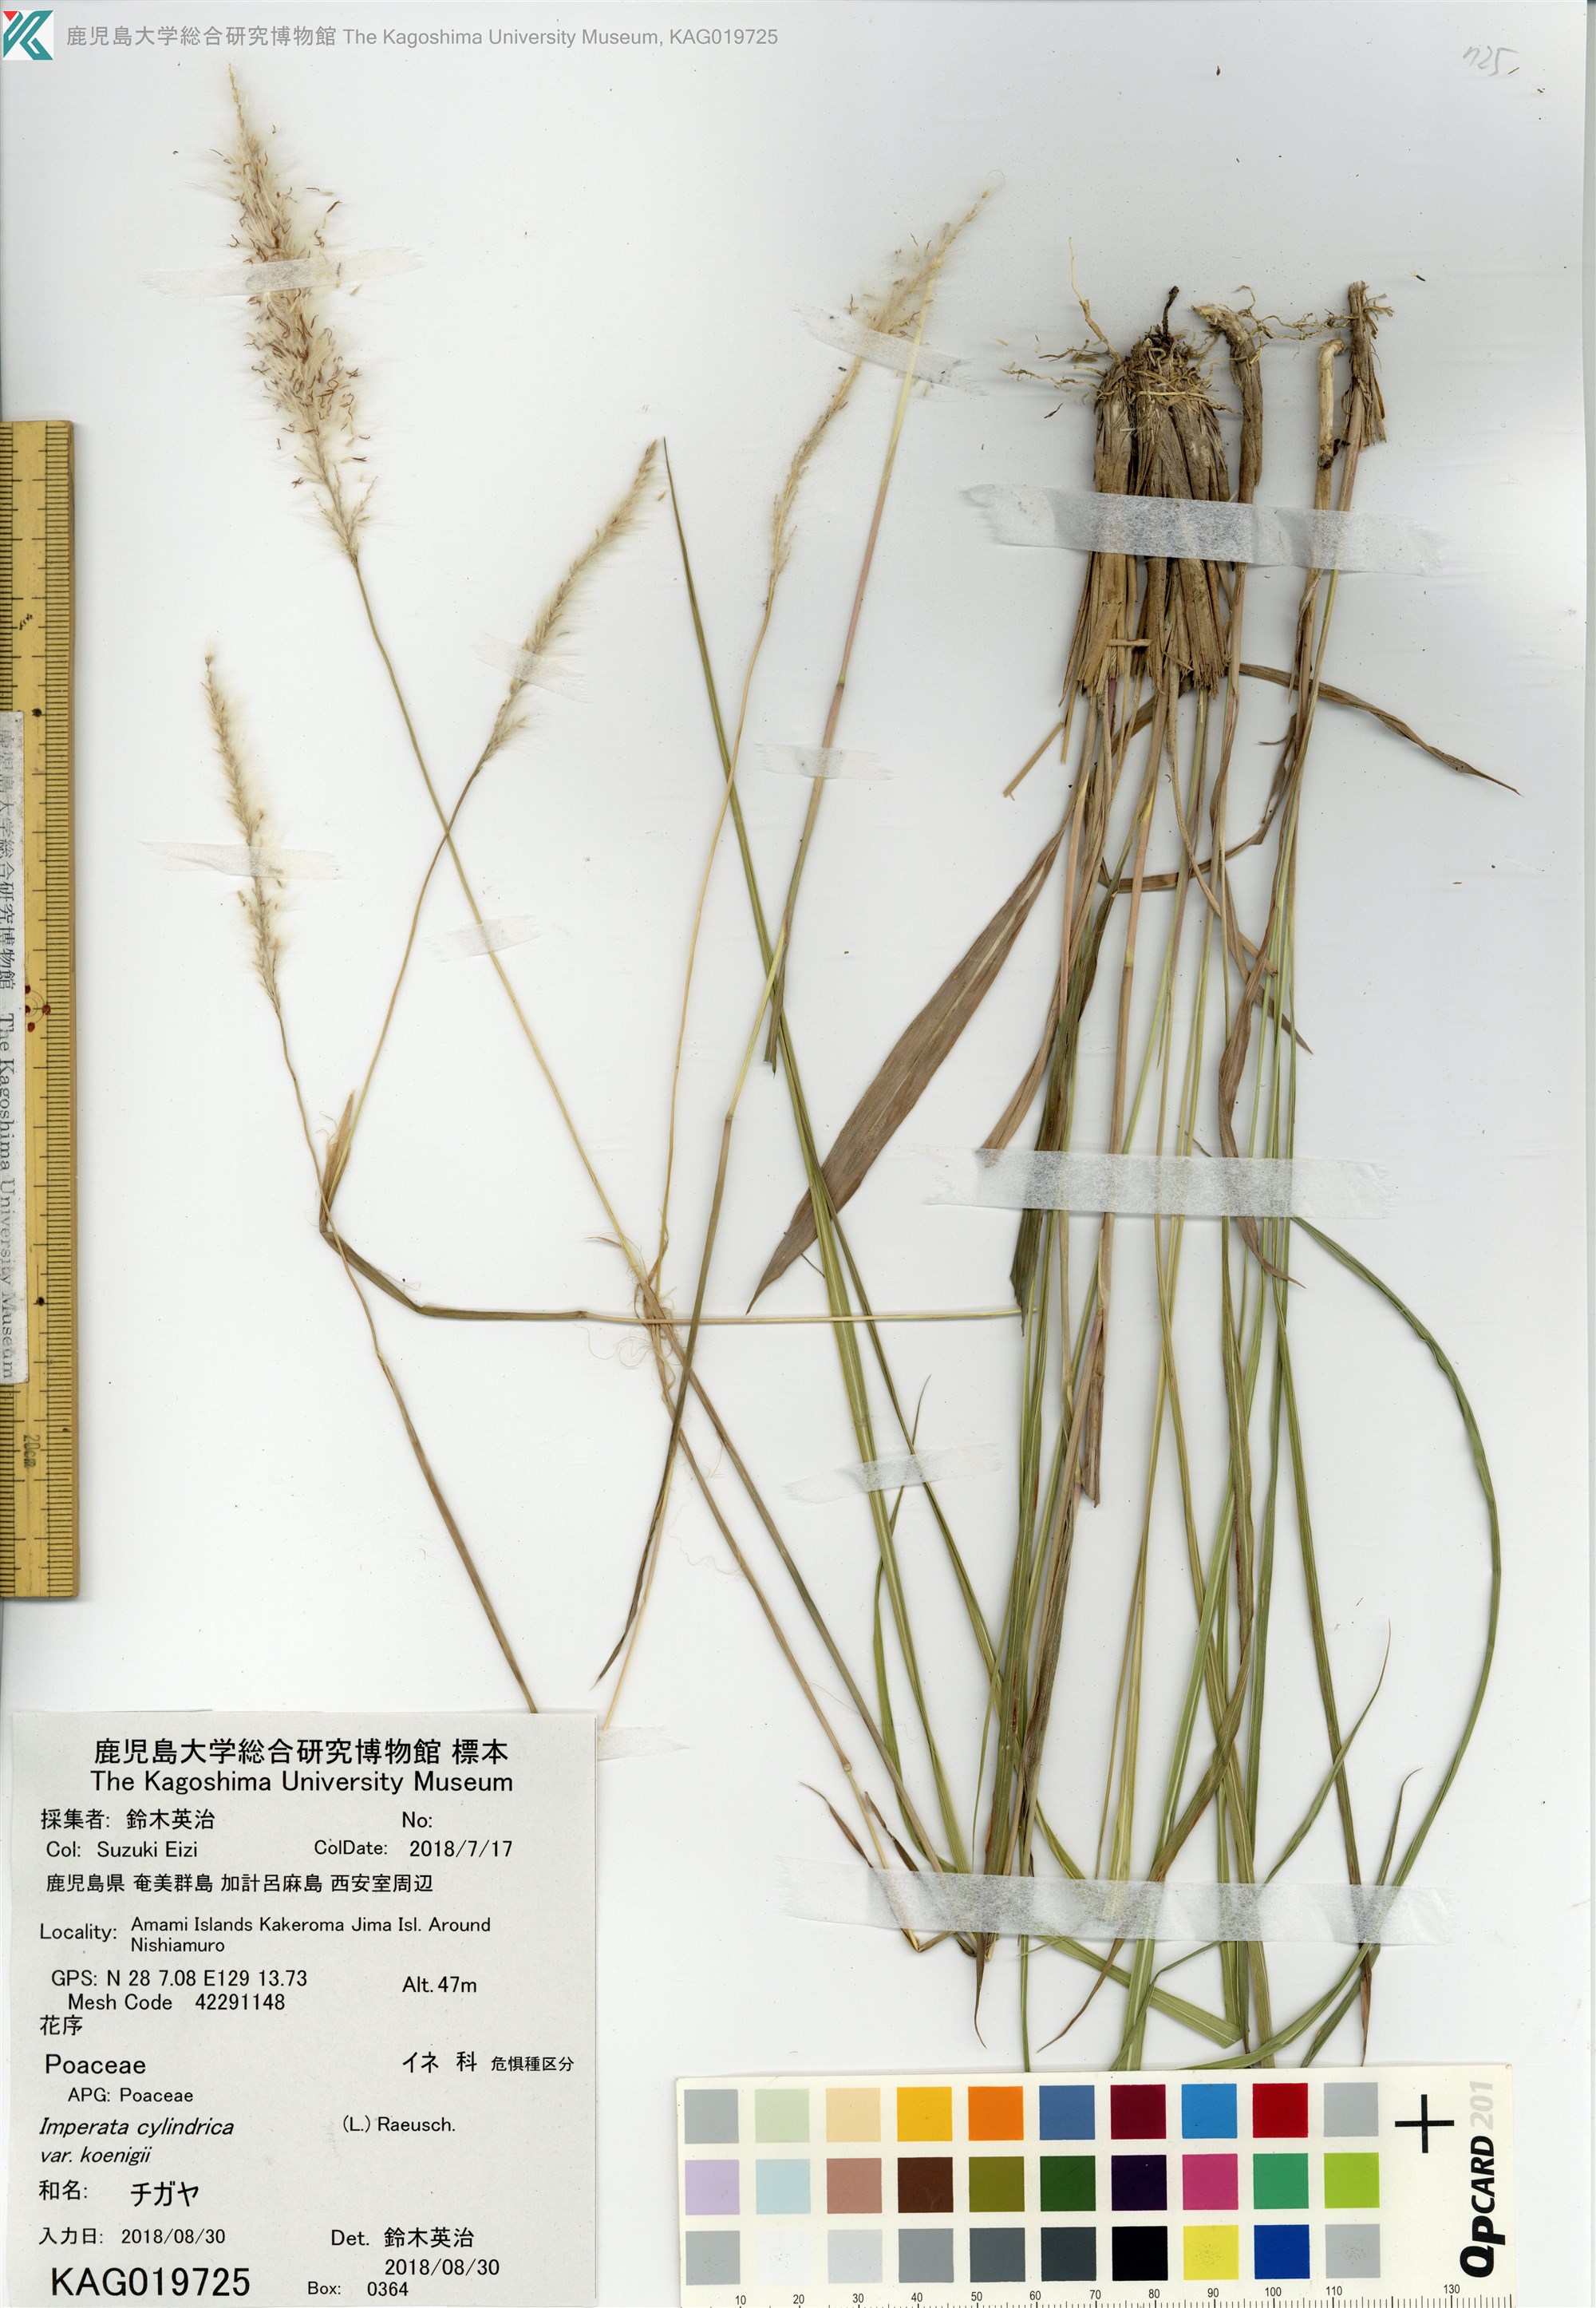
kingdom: Plantae
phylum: Tracheophyta
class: Liliopsida
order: Poales
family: Poaceae
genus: Imperata
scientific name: Imperata cylindrica
